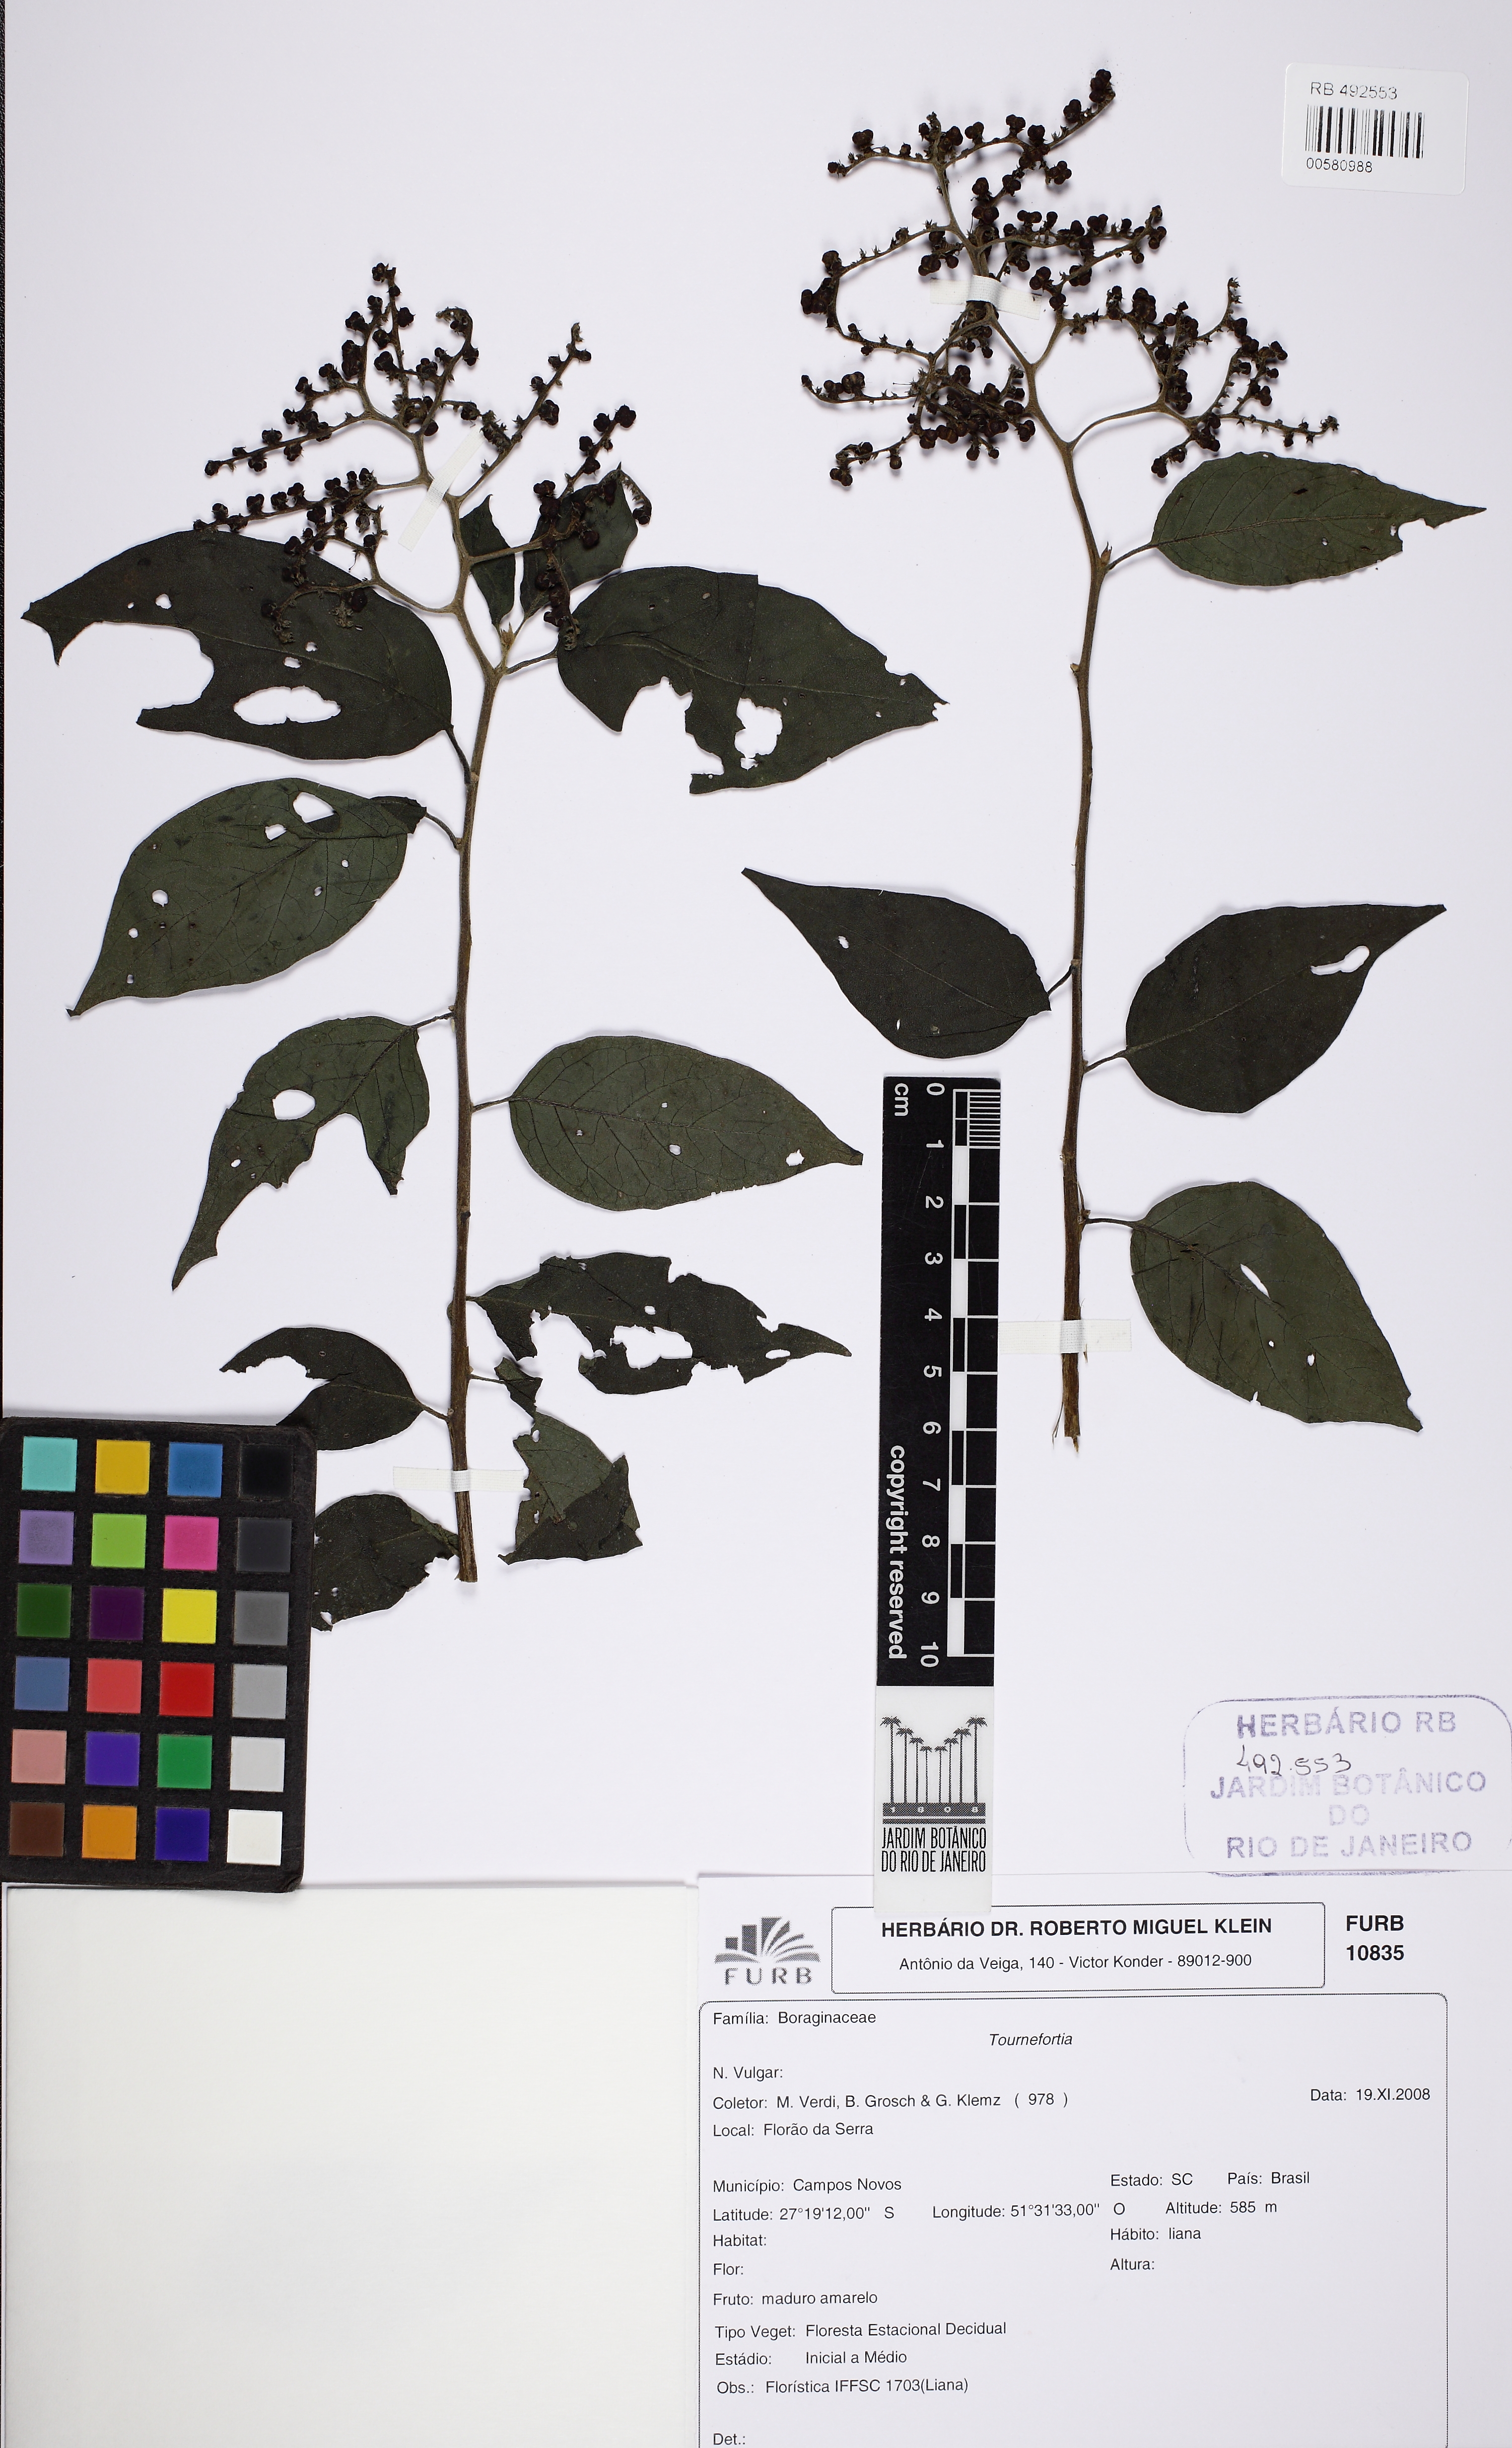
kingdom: Plantae
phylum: Tracheophyta
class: Magnoliopsida
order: Boraginales
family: Heliotropiaceae
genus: Myriopus
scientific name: Myriopus paniculatus
